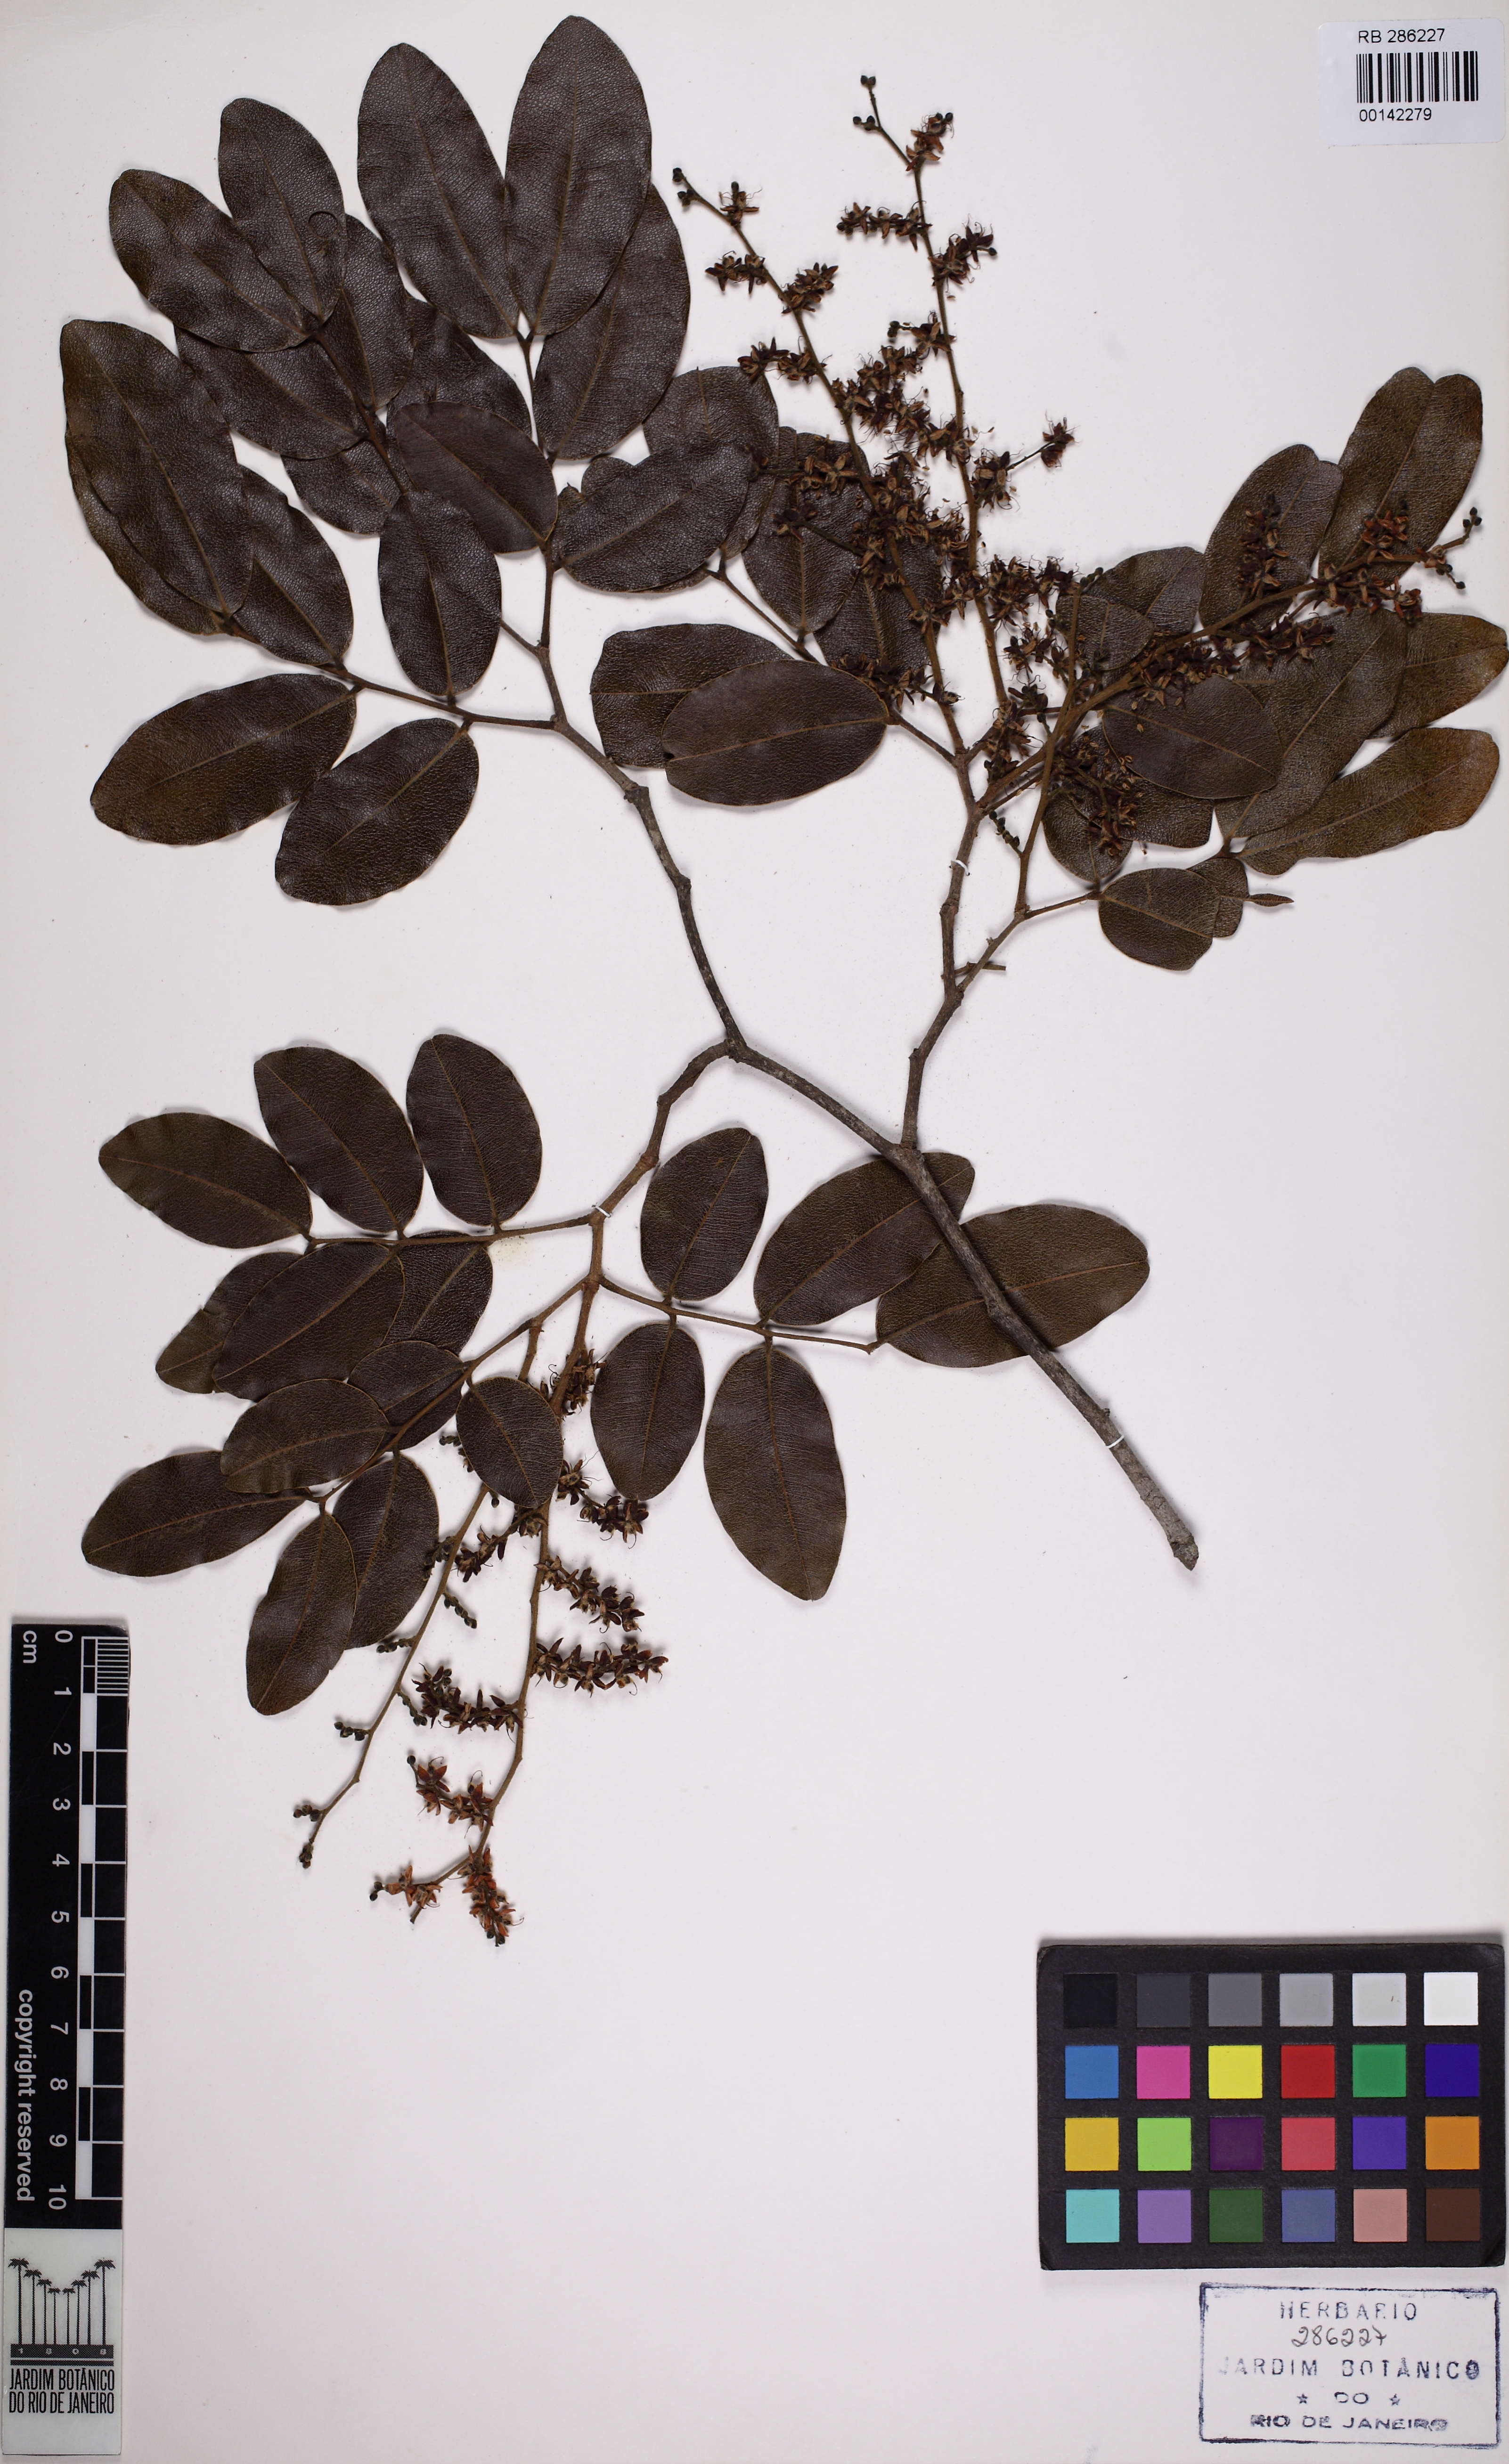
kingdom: Plantae
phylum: Tracheophyta
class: Magnoliopsida
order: Fabales
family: Fabaceae
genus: Copaifera
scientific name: Copaifera lucens
